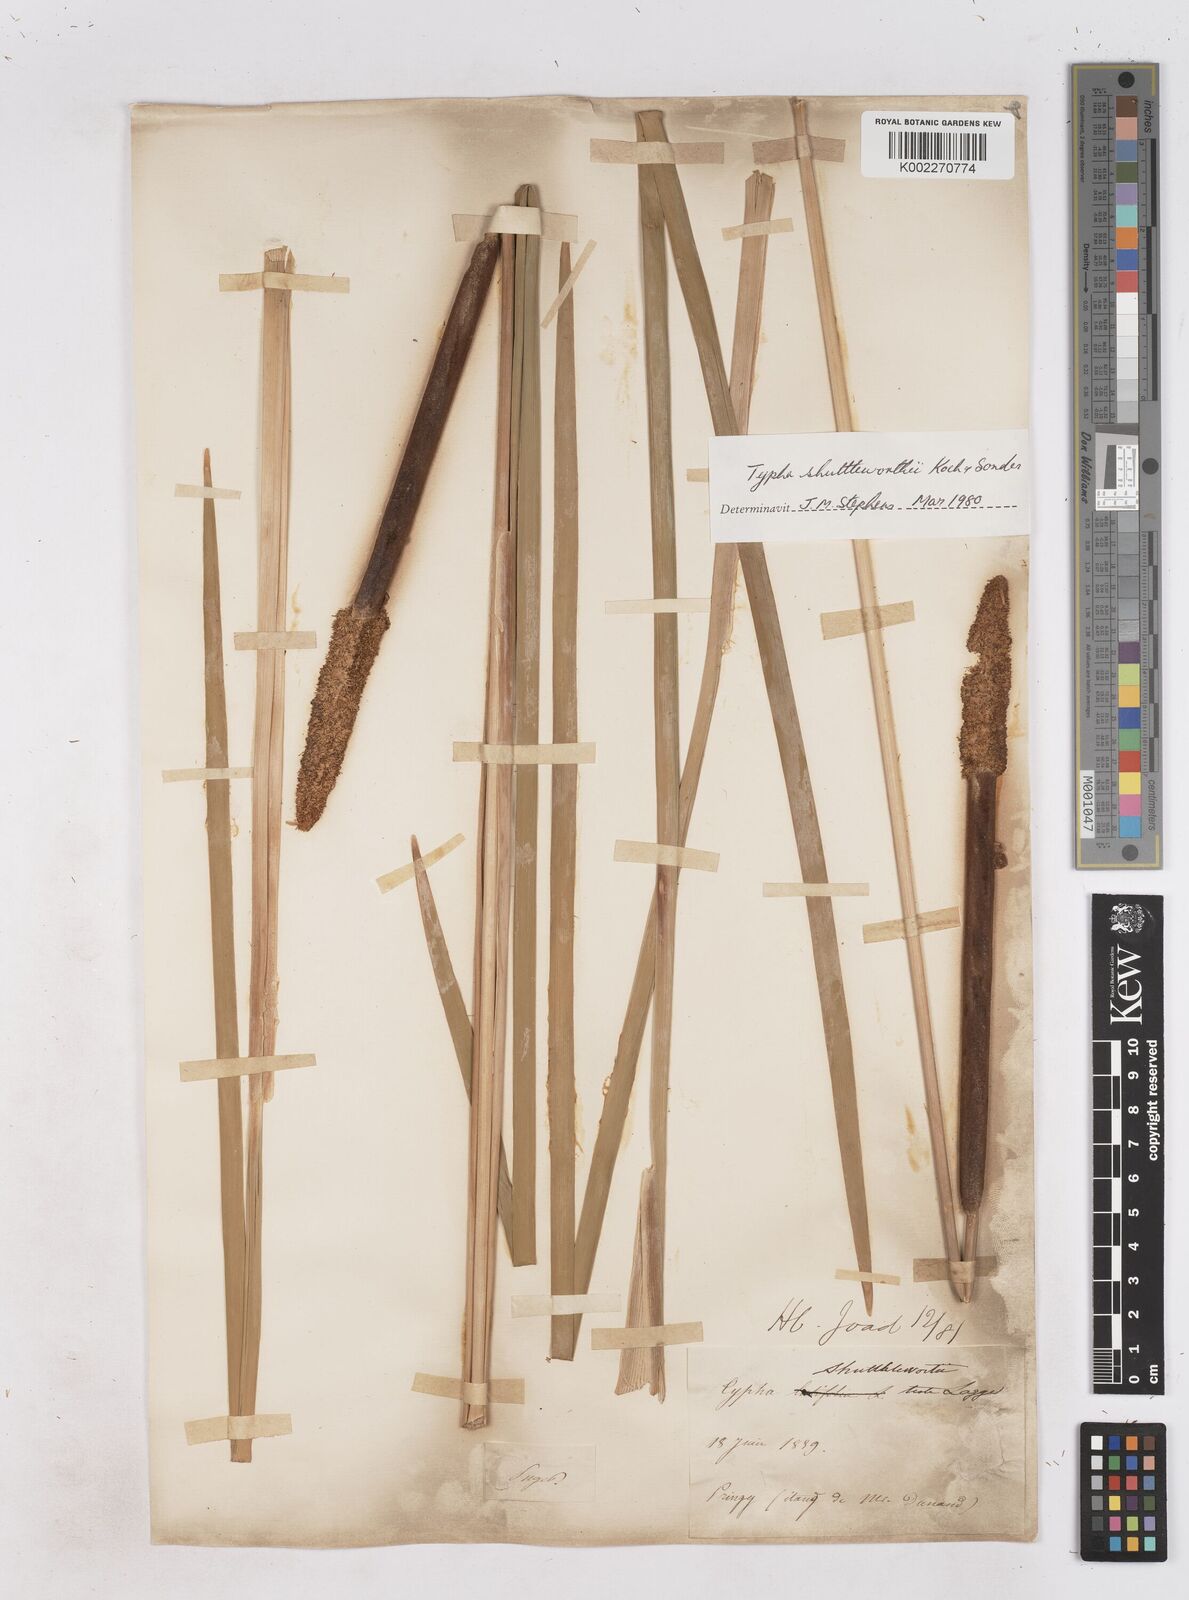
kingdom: Plantae
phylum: Tracheophyta
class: Liliopsida
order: Poales
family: Typhaceae
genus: Typha
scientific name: Typha shuttleworthii
